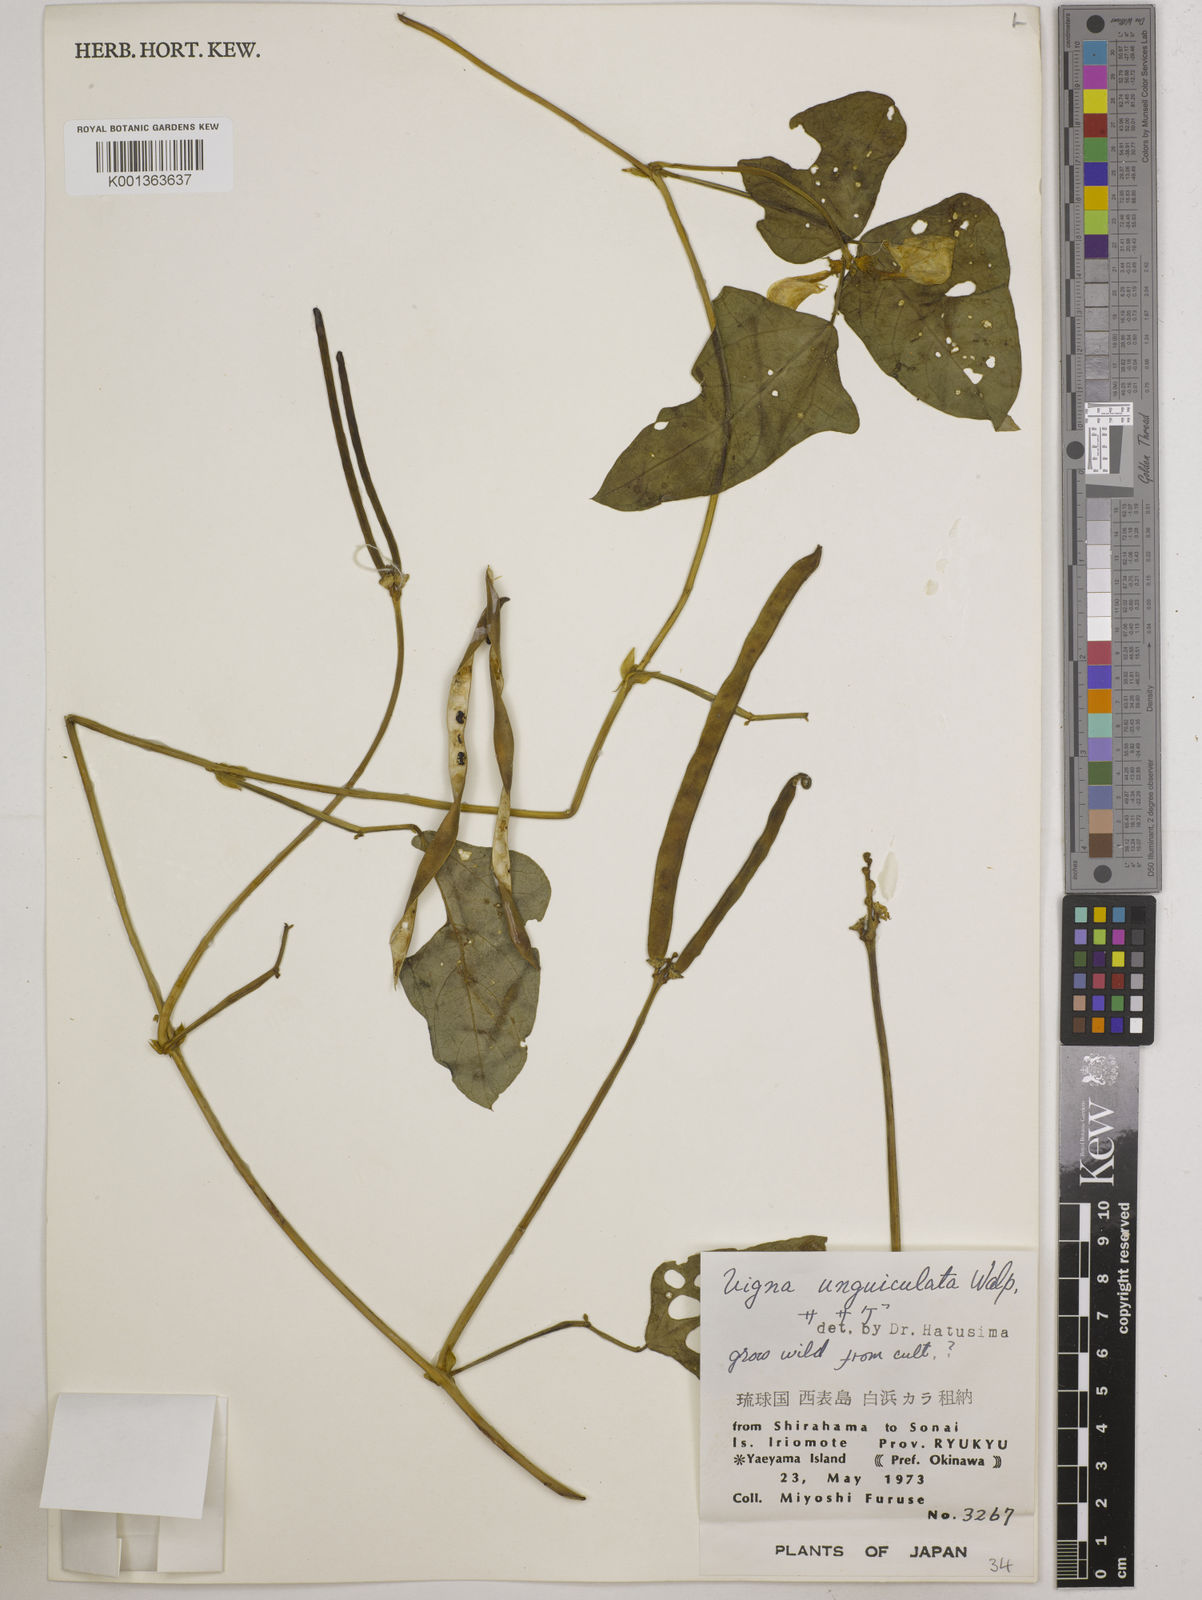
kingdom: Plantae
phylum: Tracheophyta
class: Magnoliopsida
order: Fabales
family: Fabaceae
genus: Vigna
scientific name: Vigna unguiculata
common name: Cowpea
